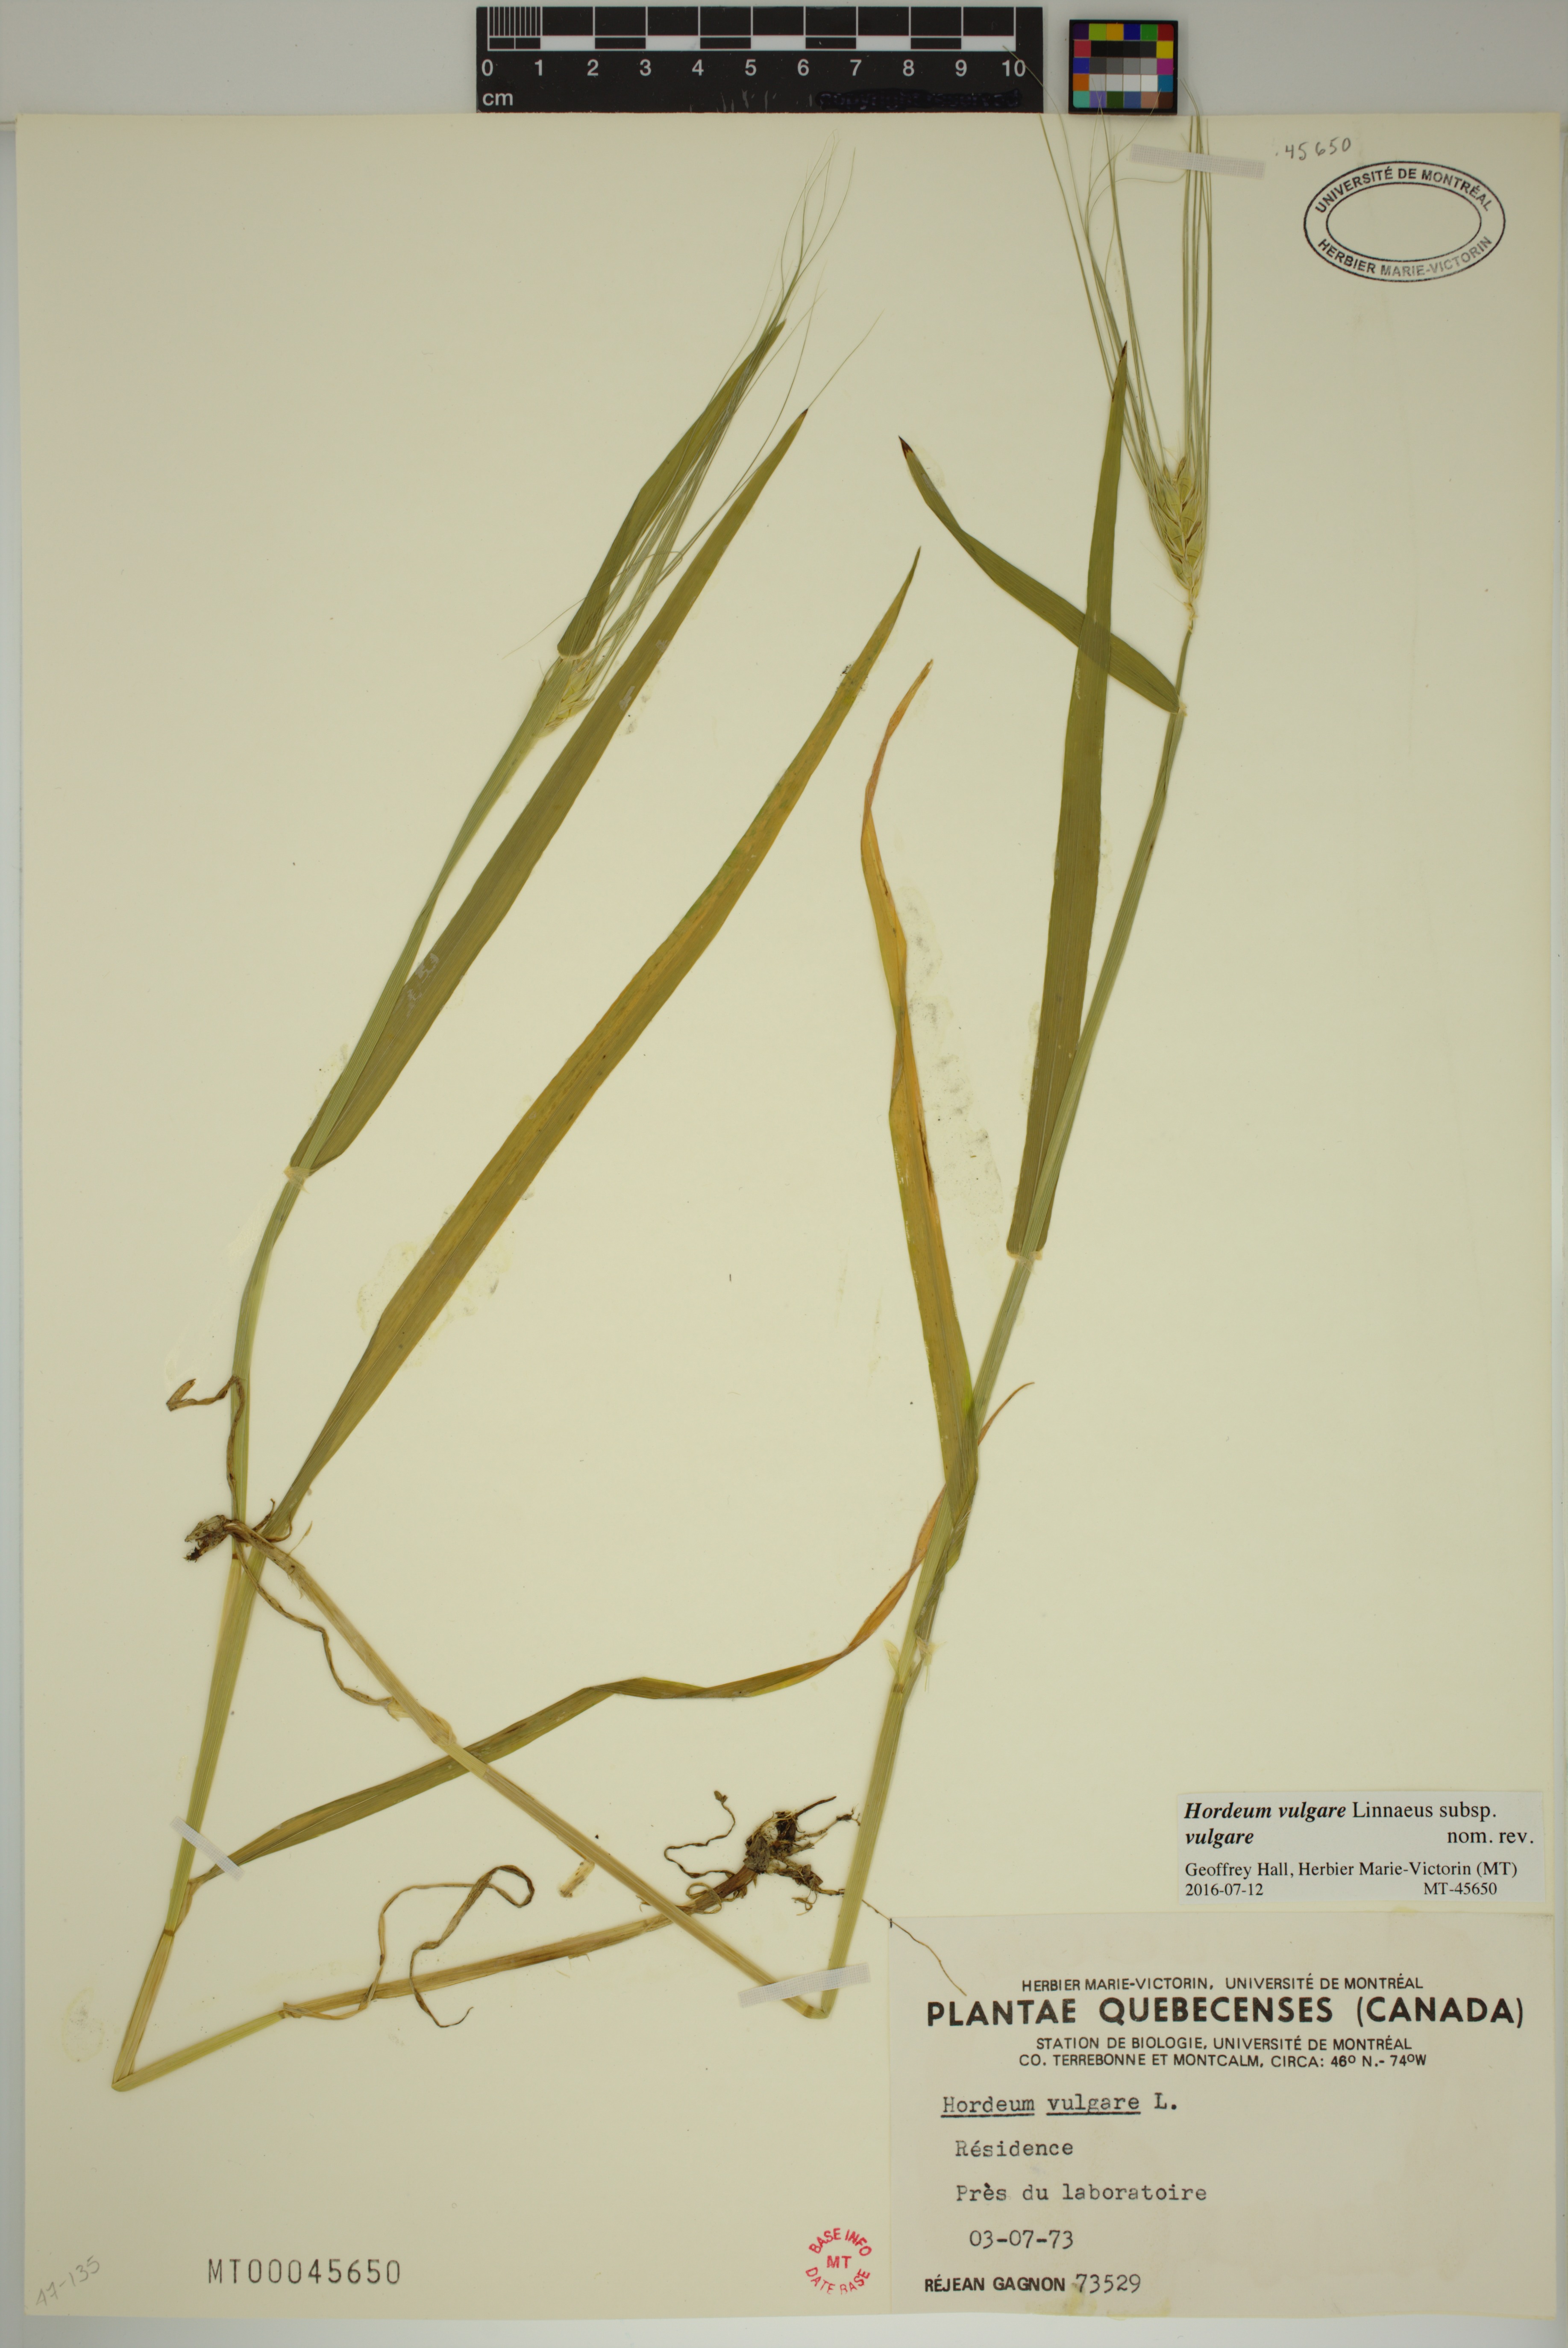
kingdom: Plantae
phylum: Tracheophyta
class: Liliopsida
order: Poales
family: Poaceae
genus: Hordeum
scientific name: Hordeum vulgare
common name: Common barley
